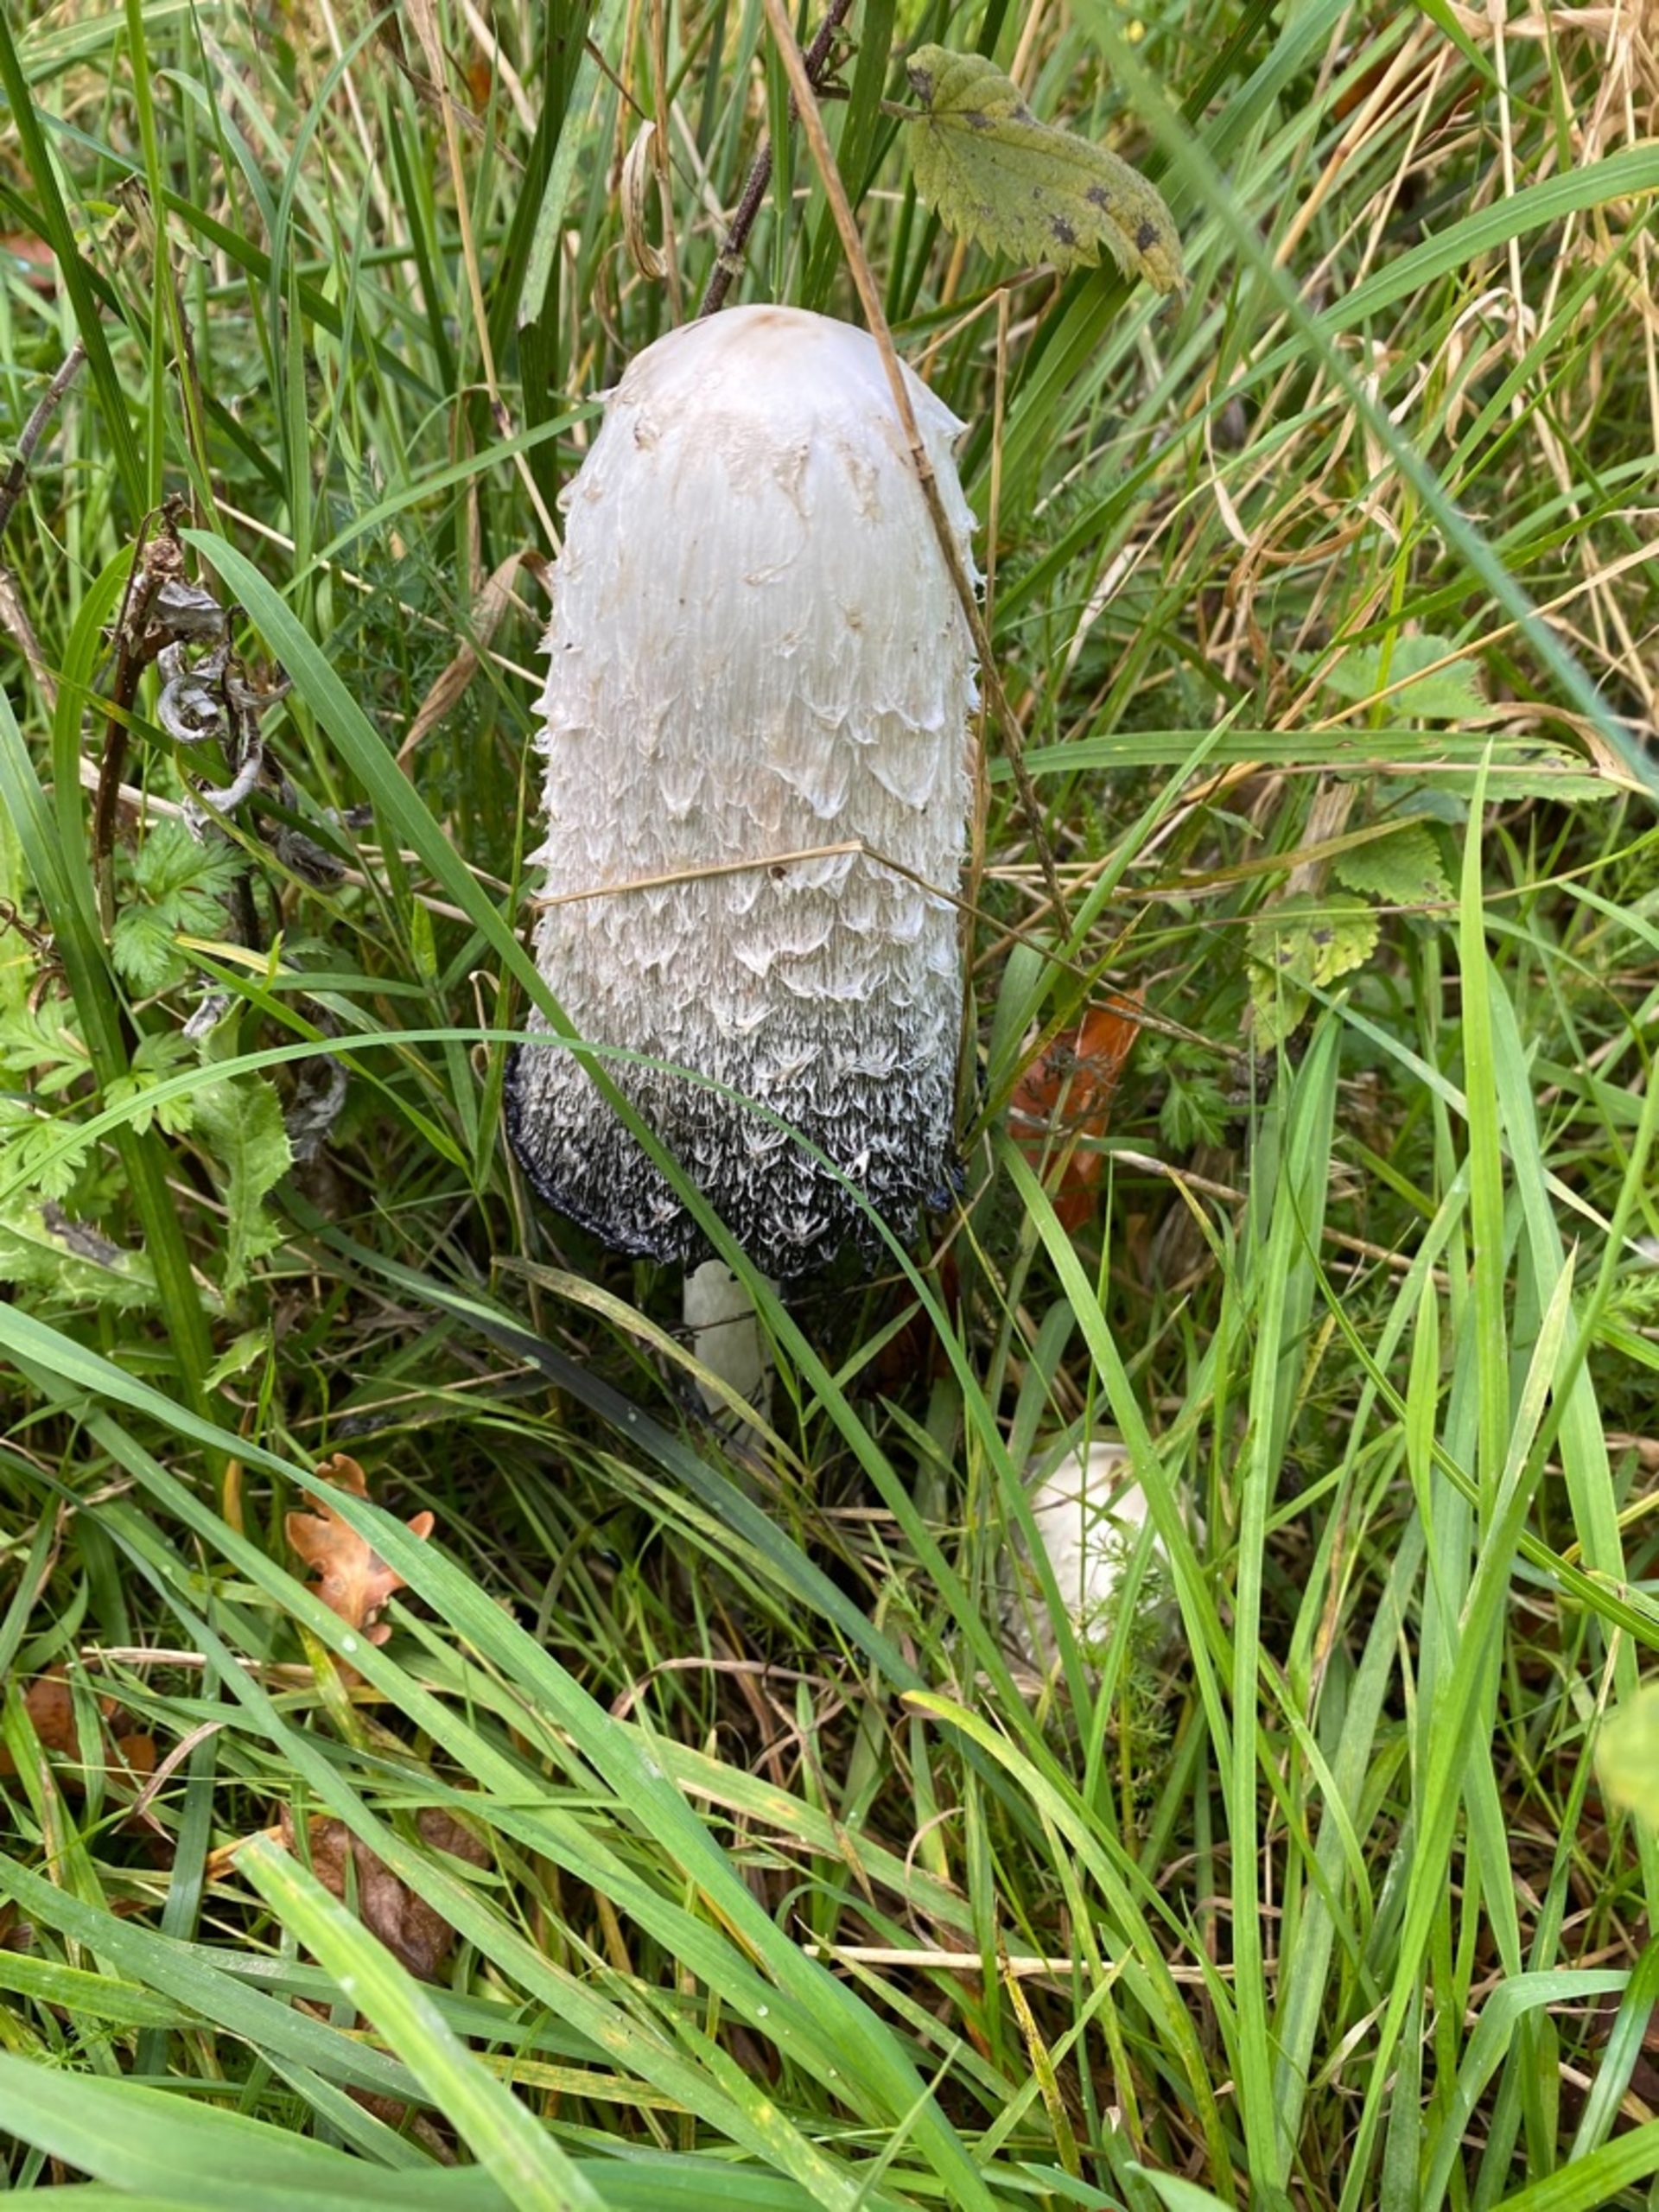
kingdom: Fungi
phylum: Basidiomycota
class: Agaricomycetes
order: Agaricales
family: Agaricaceae
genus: Coprinus
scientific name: Coprinus comatus
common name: Stor parykhat
